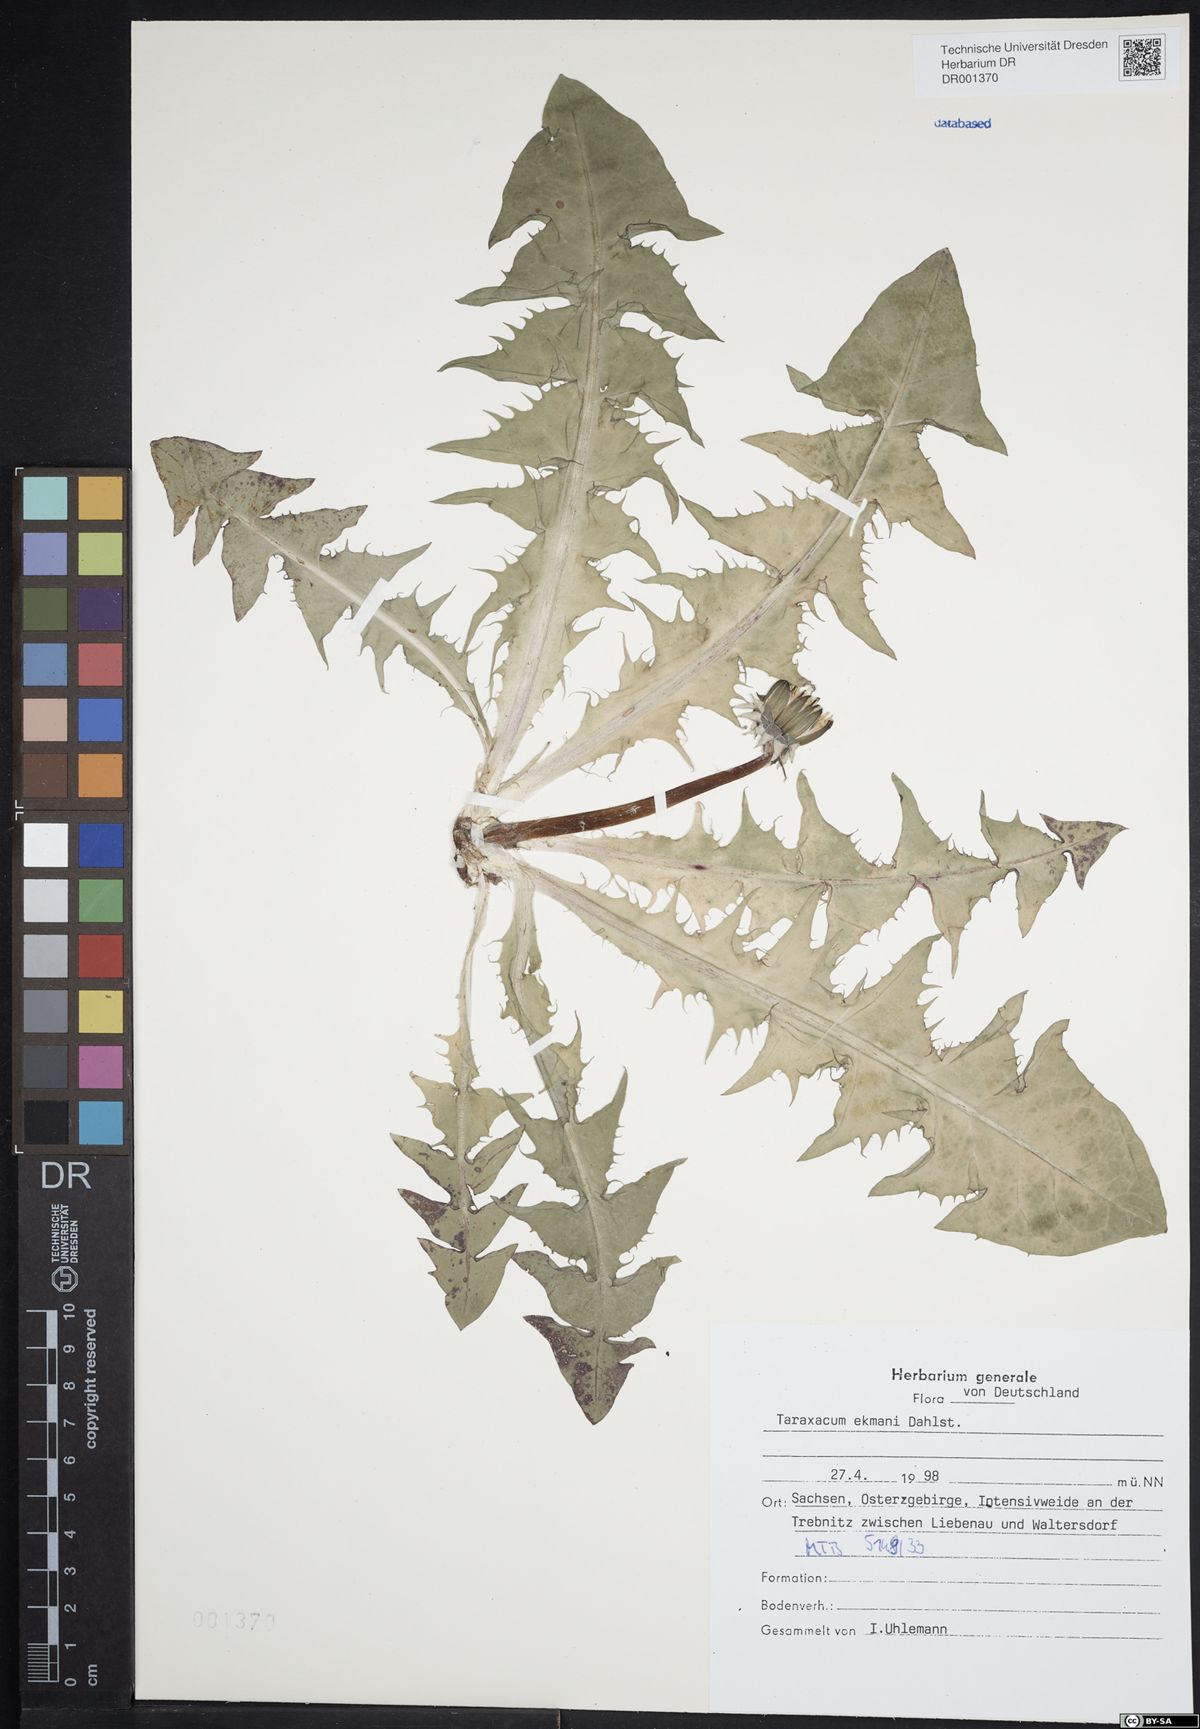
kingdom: Plantae
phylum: Tracheophyta
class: Magnoliopsida
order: Asterales
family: Asteraceae
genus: Taraxacum
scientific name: Taraxacum ekmanii
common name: Ekman's dandelion
